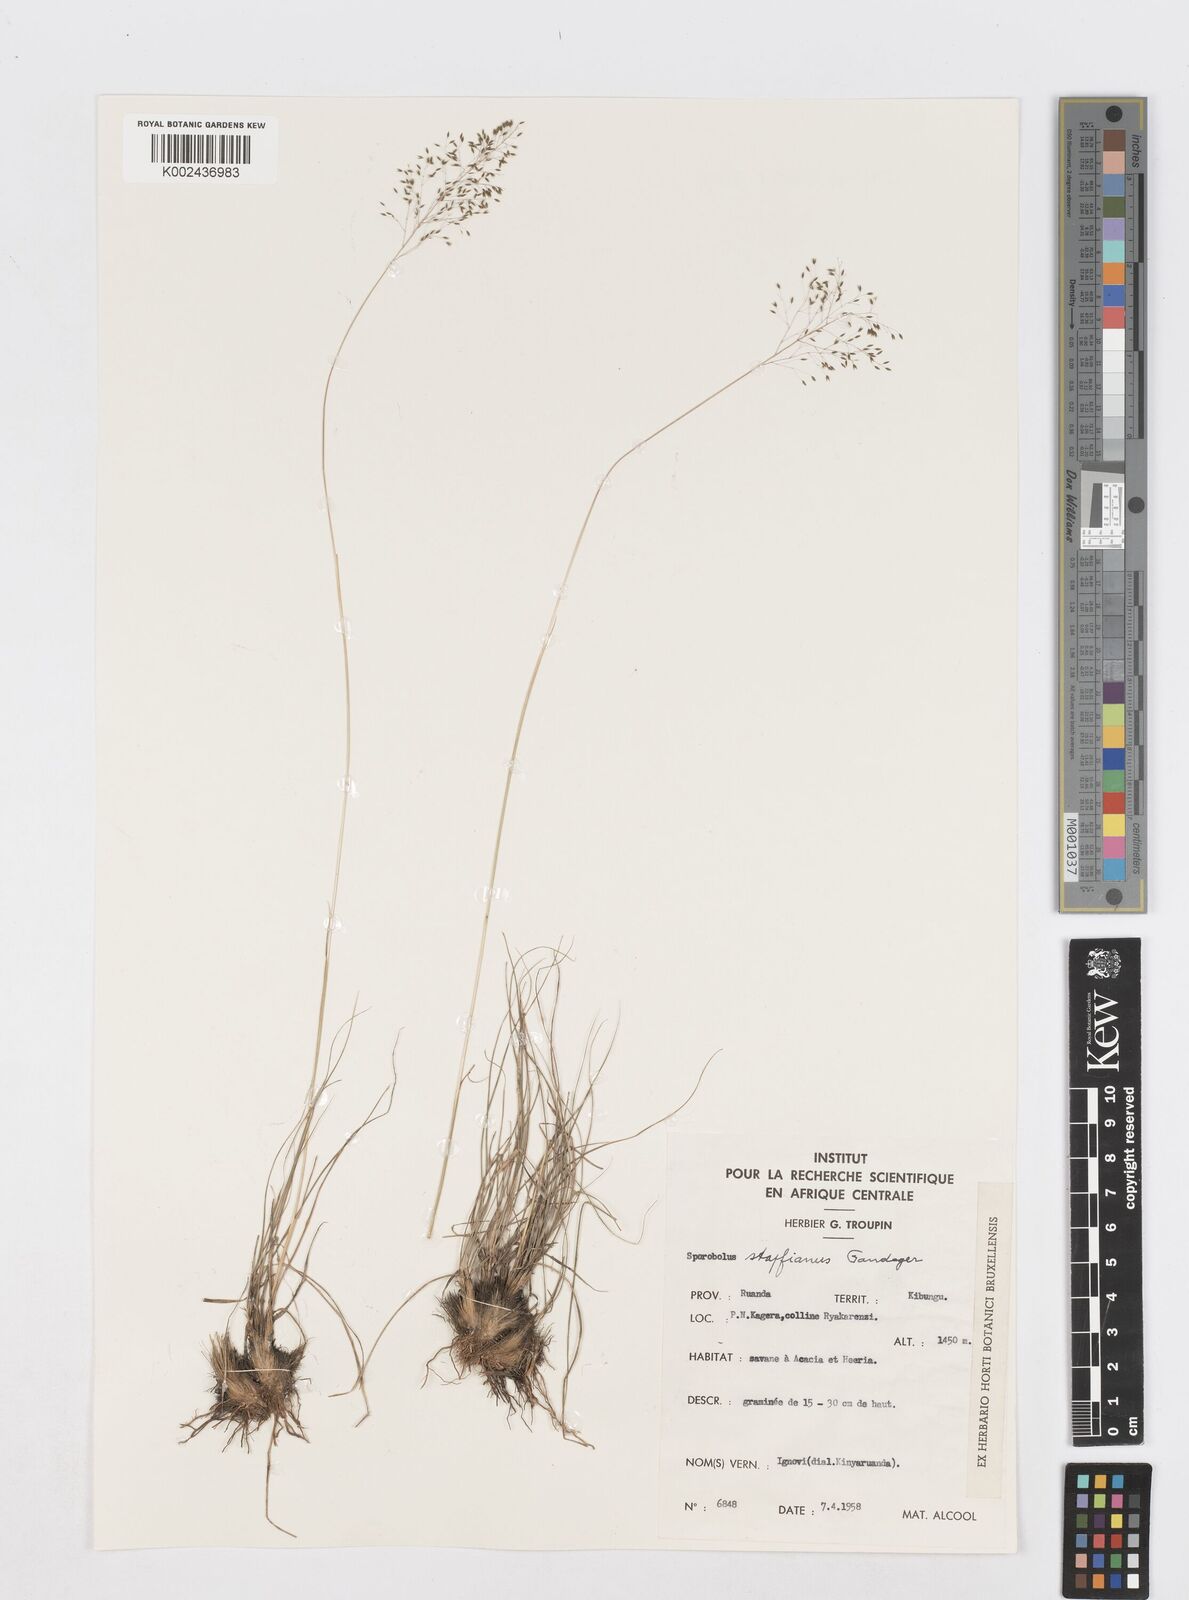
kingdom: Plantae
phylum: Tracheophyta
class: Liliopsida
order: Poales
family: Poaceae
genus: Sporobolus
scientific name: Sporobolus stapfianus
